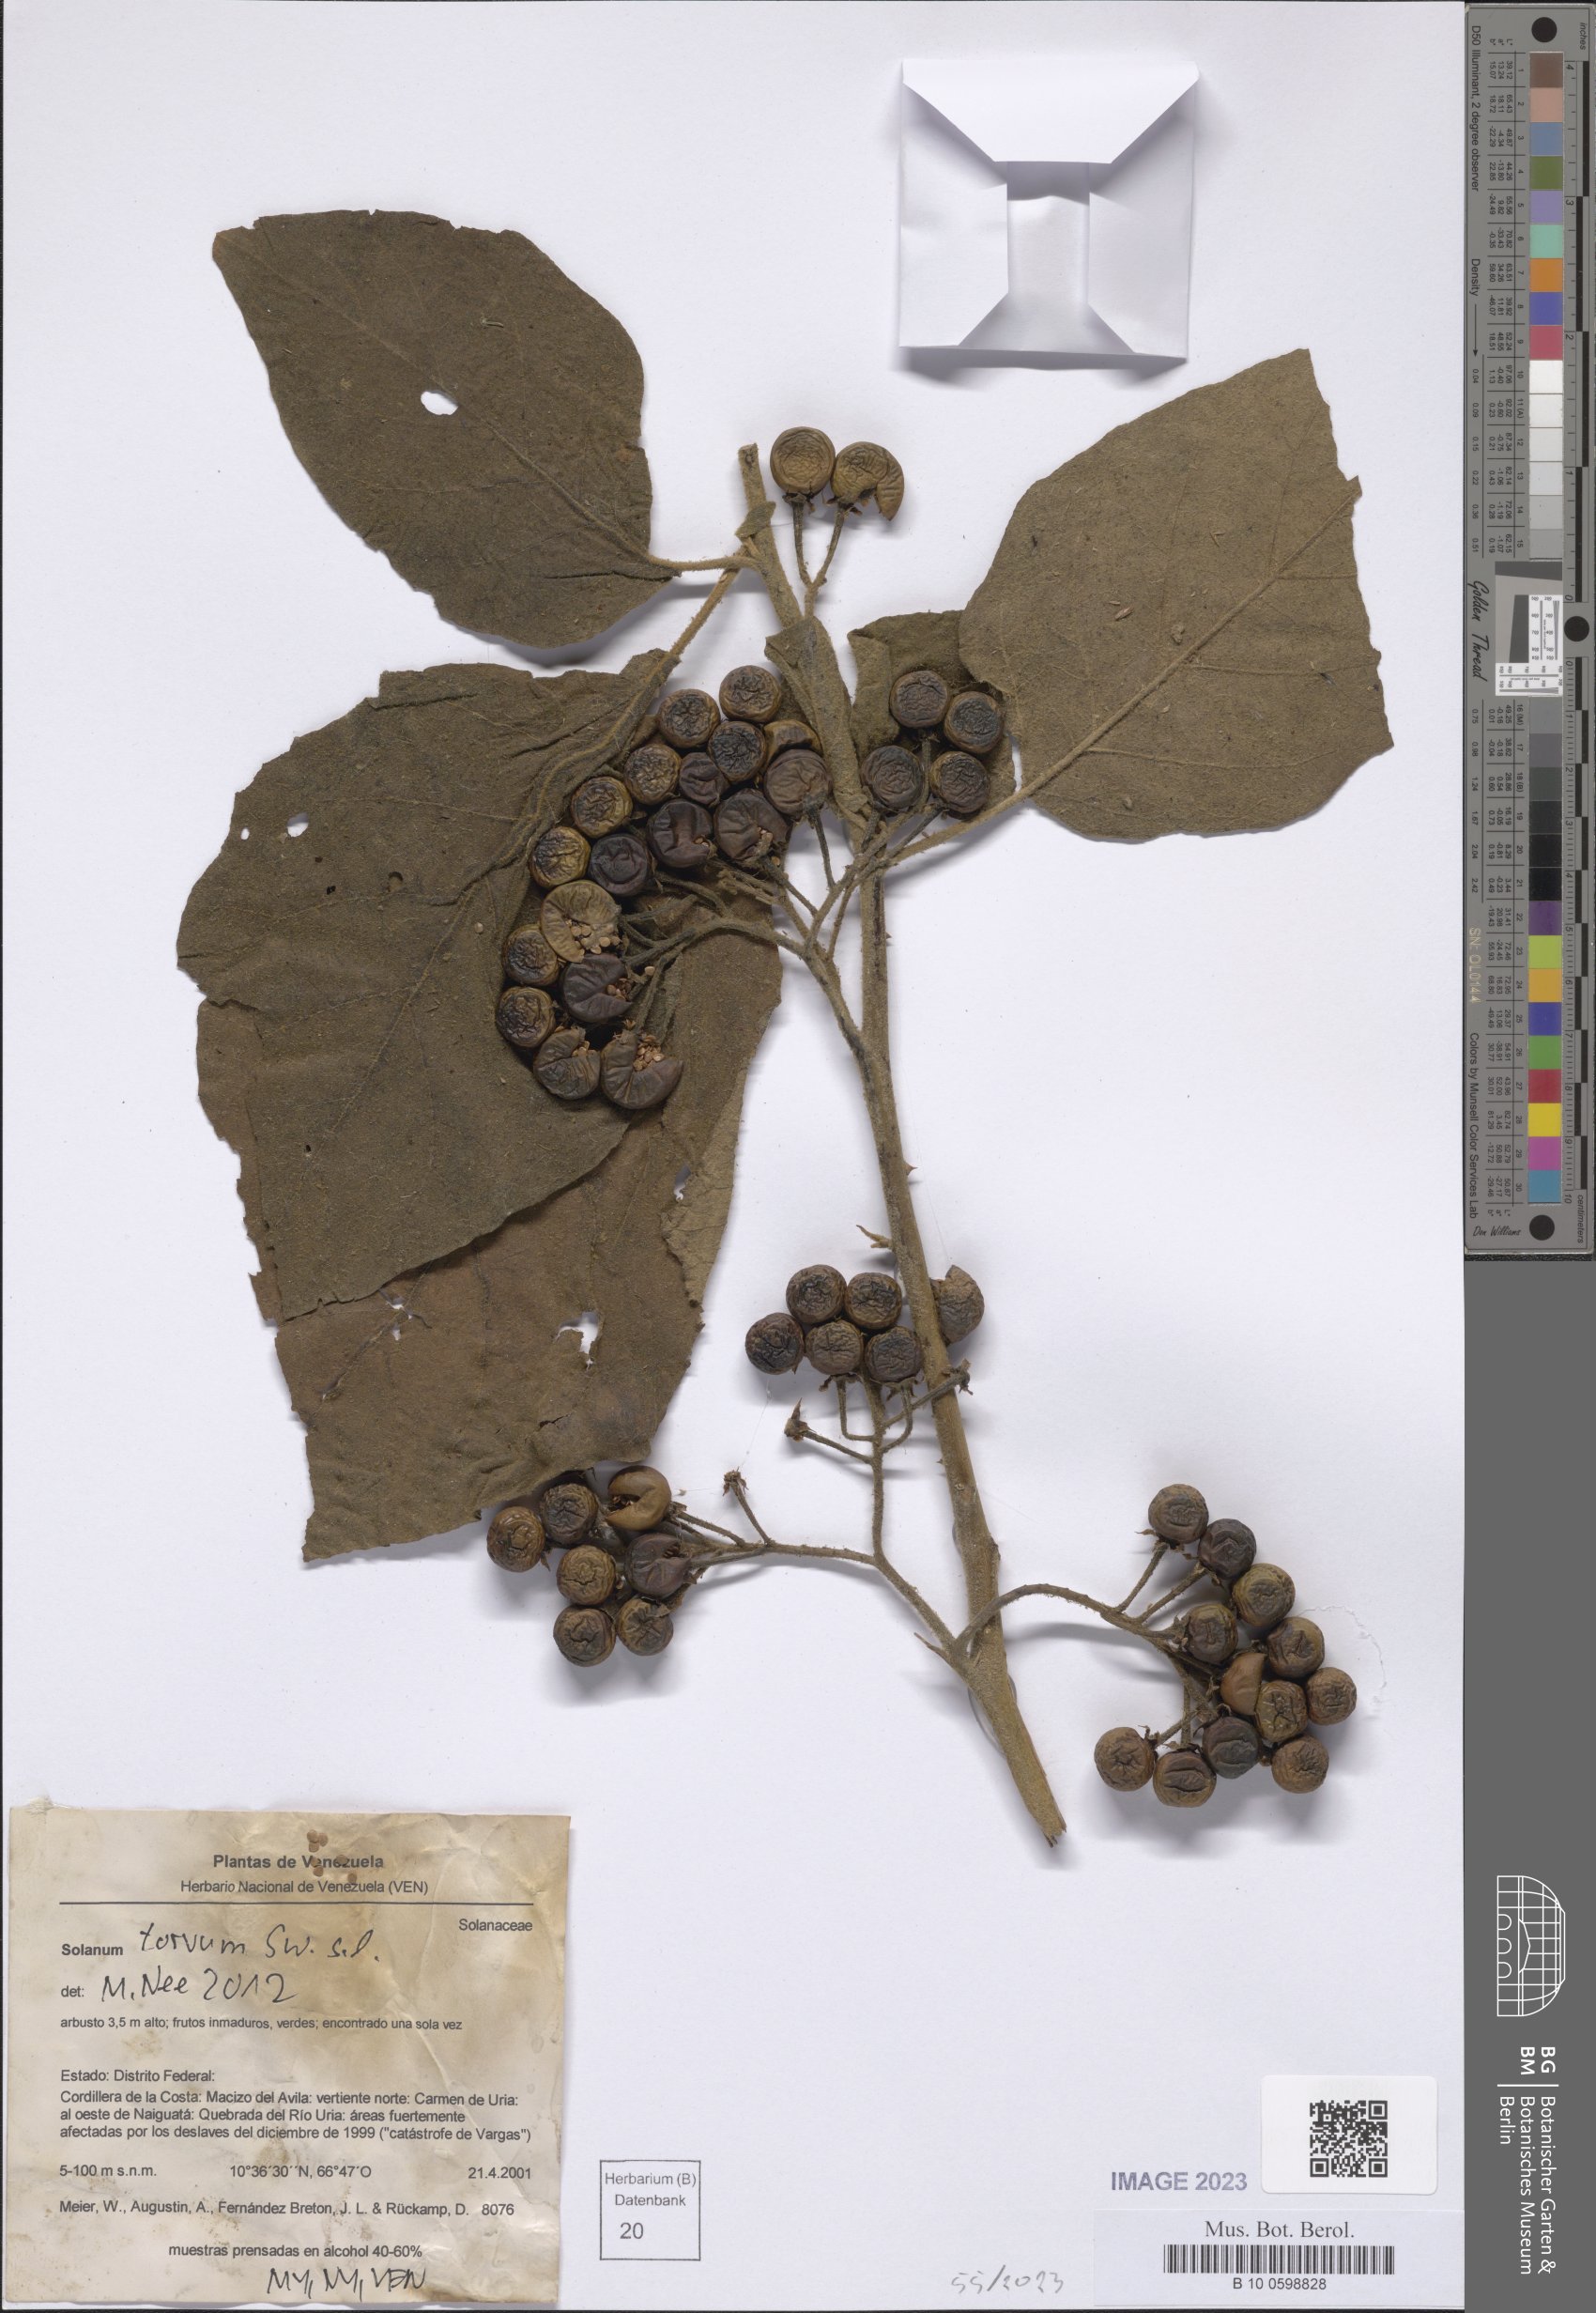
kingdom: Plantae
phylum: Tracheophyta
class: Magnoliopsida
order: Solanales
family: Solanaceae
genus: Solanum
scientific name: Solanum torvum
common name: Turkey berry
